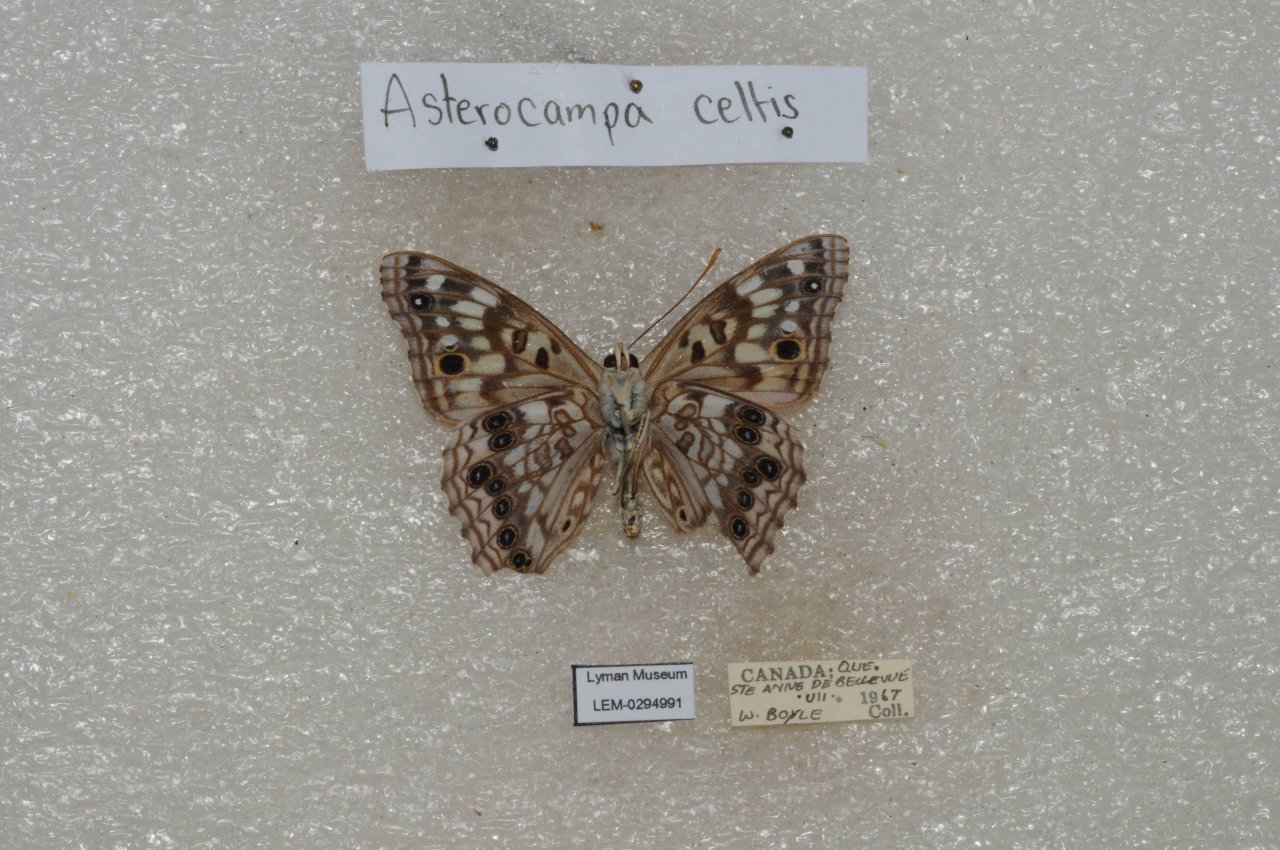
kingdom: Animalia
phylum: Arthropoda
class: Insecta
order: Lepidoptera
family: Nymphalidae
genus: Asterocampa
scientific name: Asterocampa celtis
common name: Hackberry Emperor
